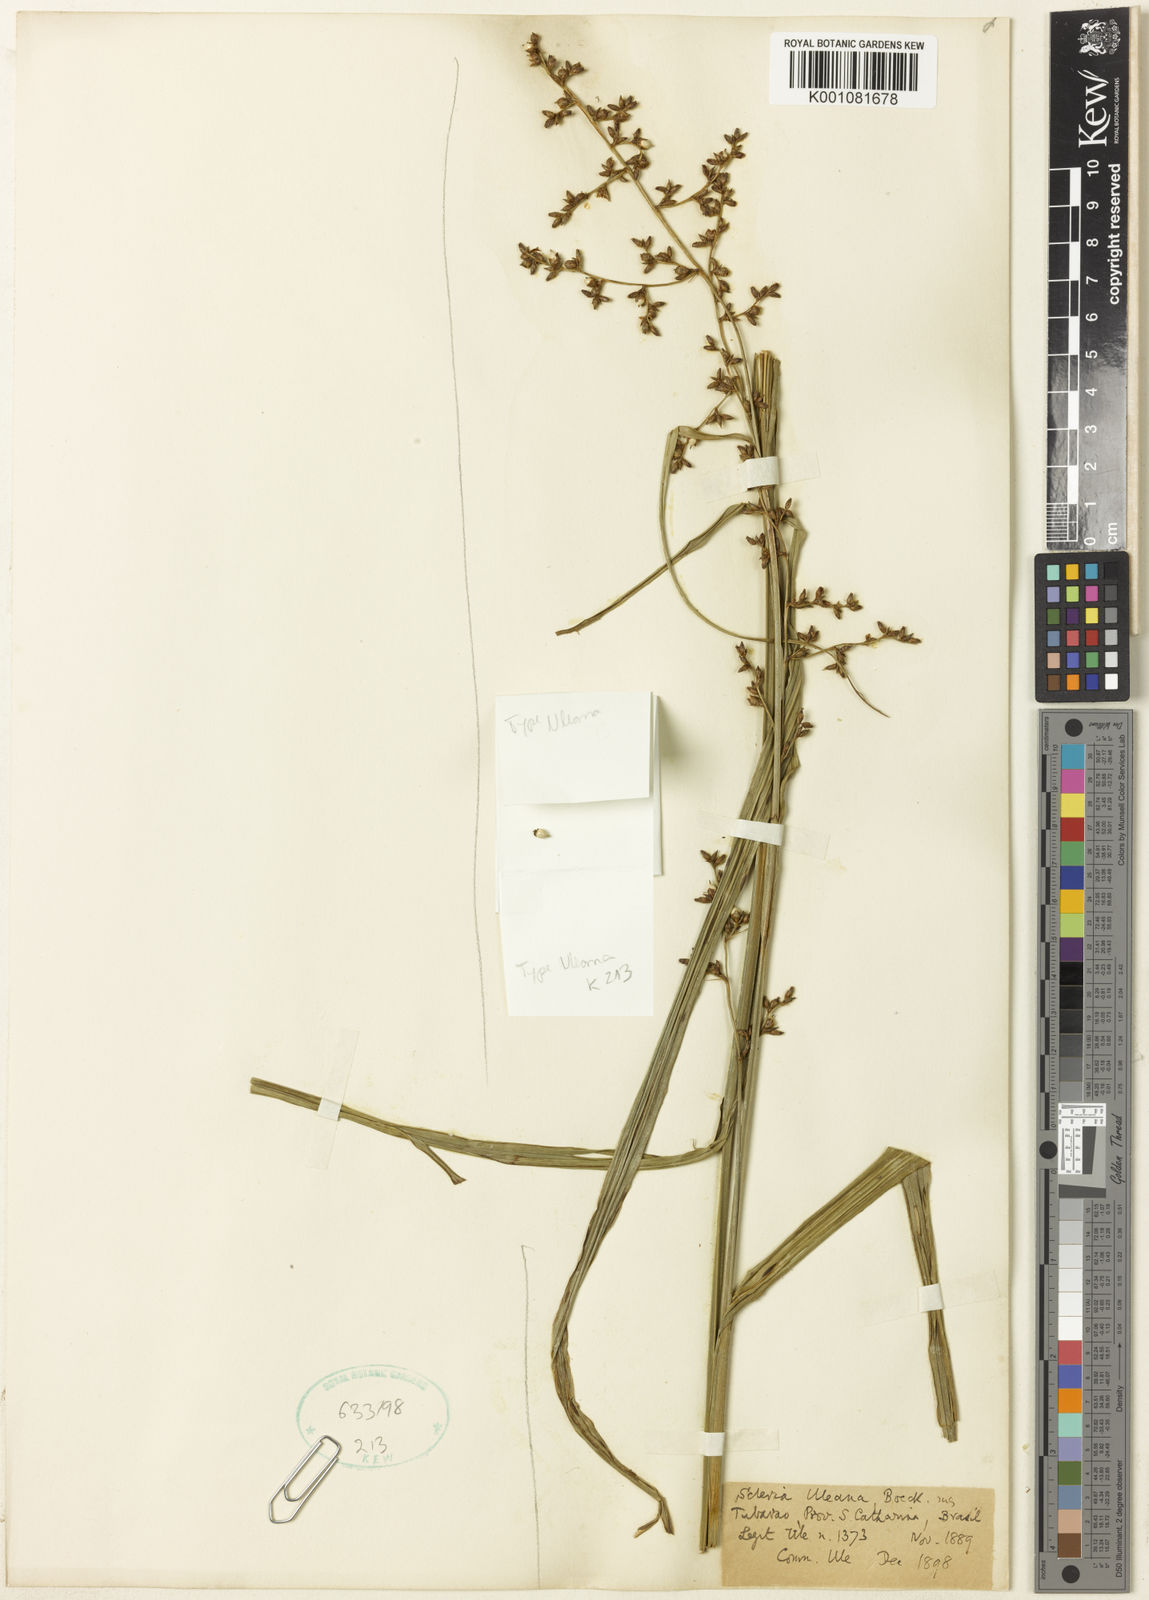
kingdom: Plantae
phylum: Tracheophyta
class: Liliopsida
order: Poales
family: Cyperaceae
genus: Scleria
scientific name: Scleria uleana
